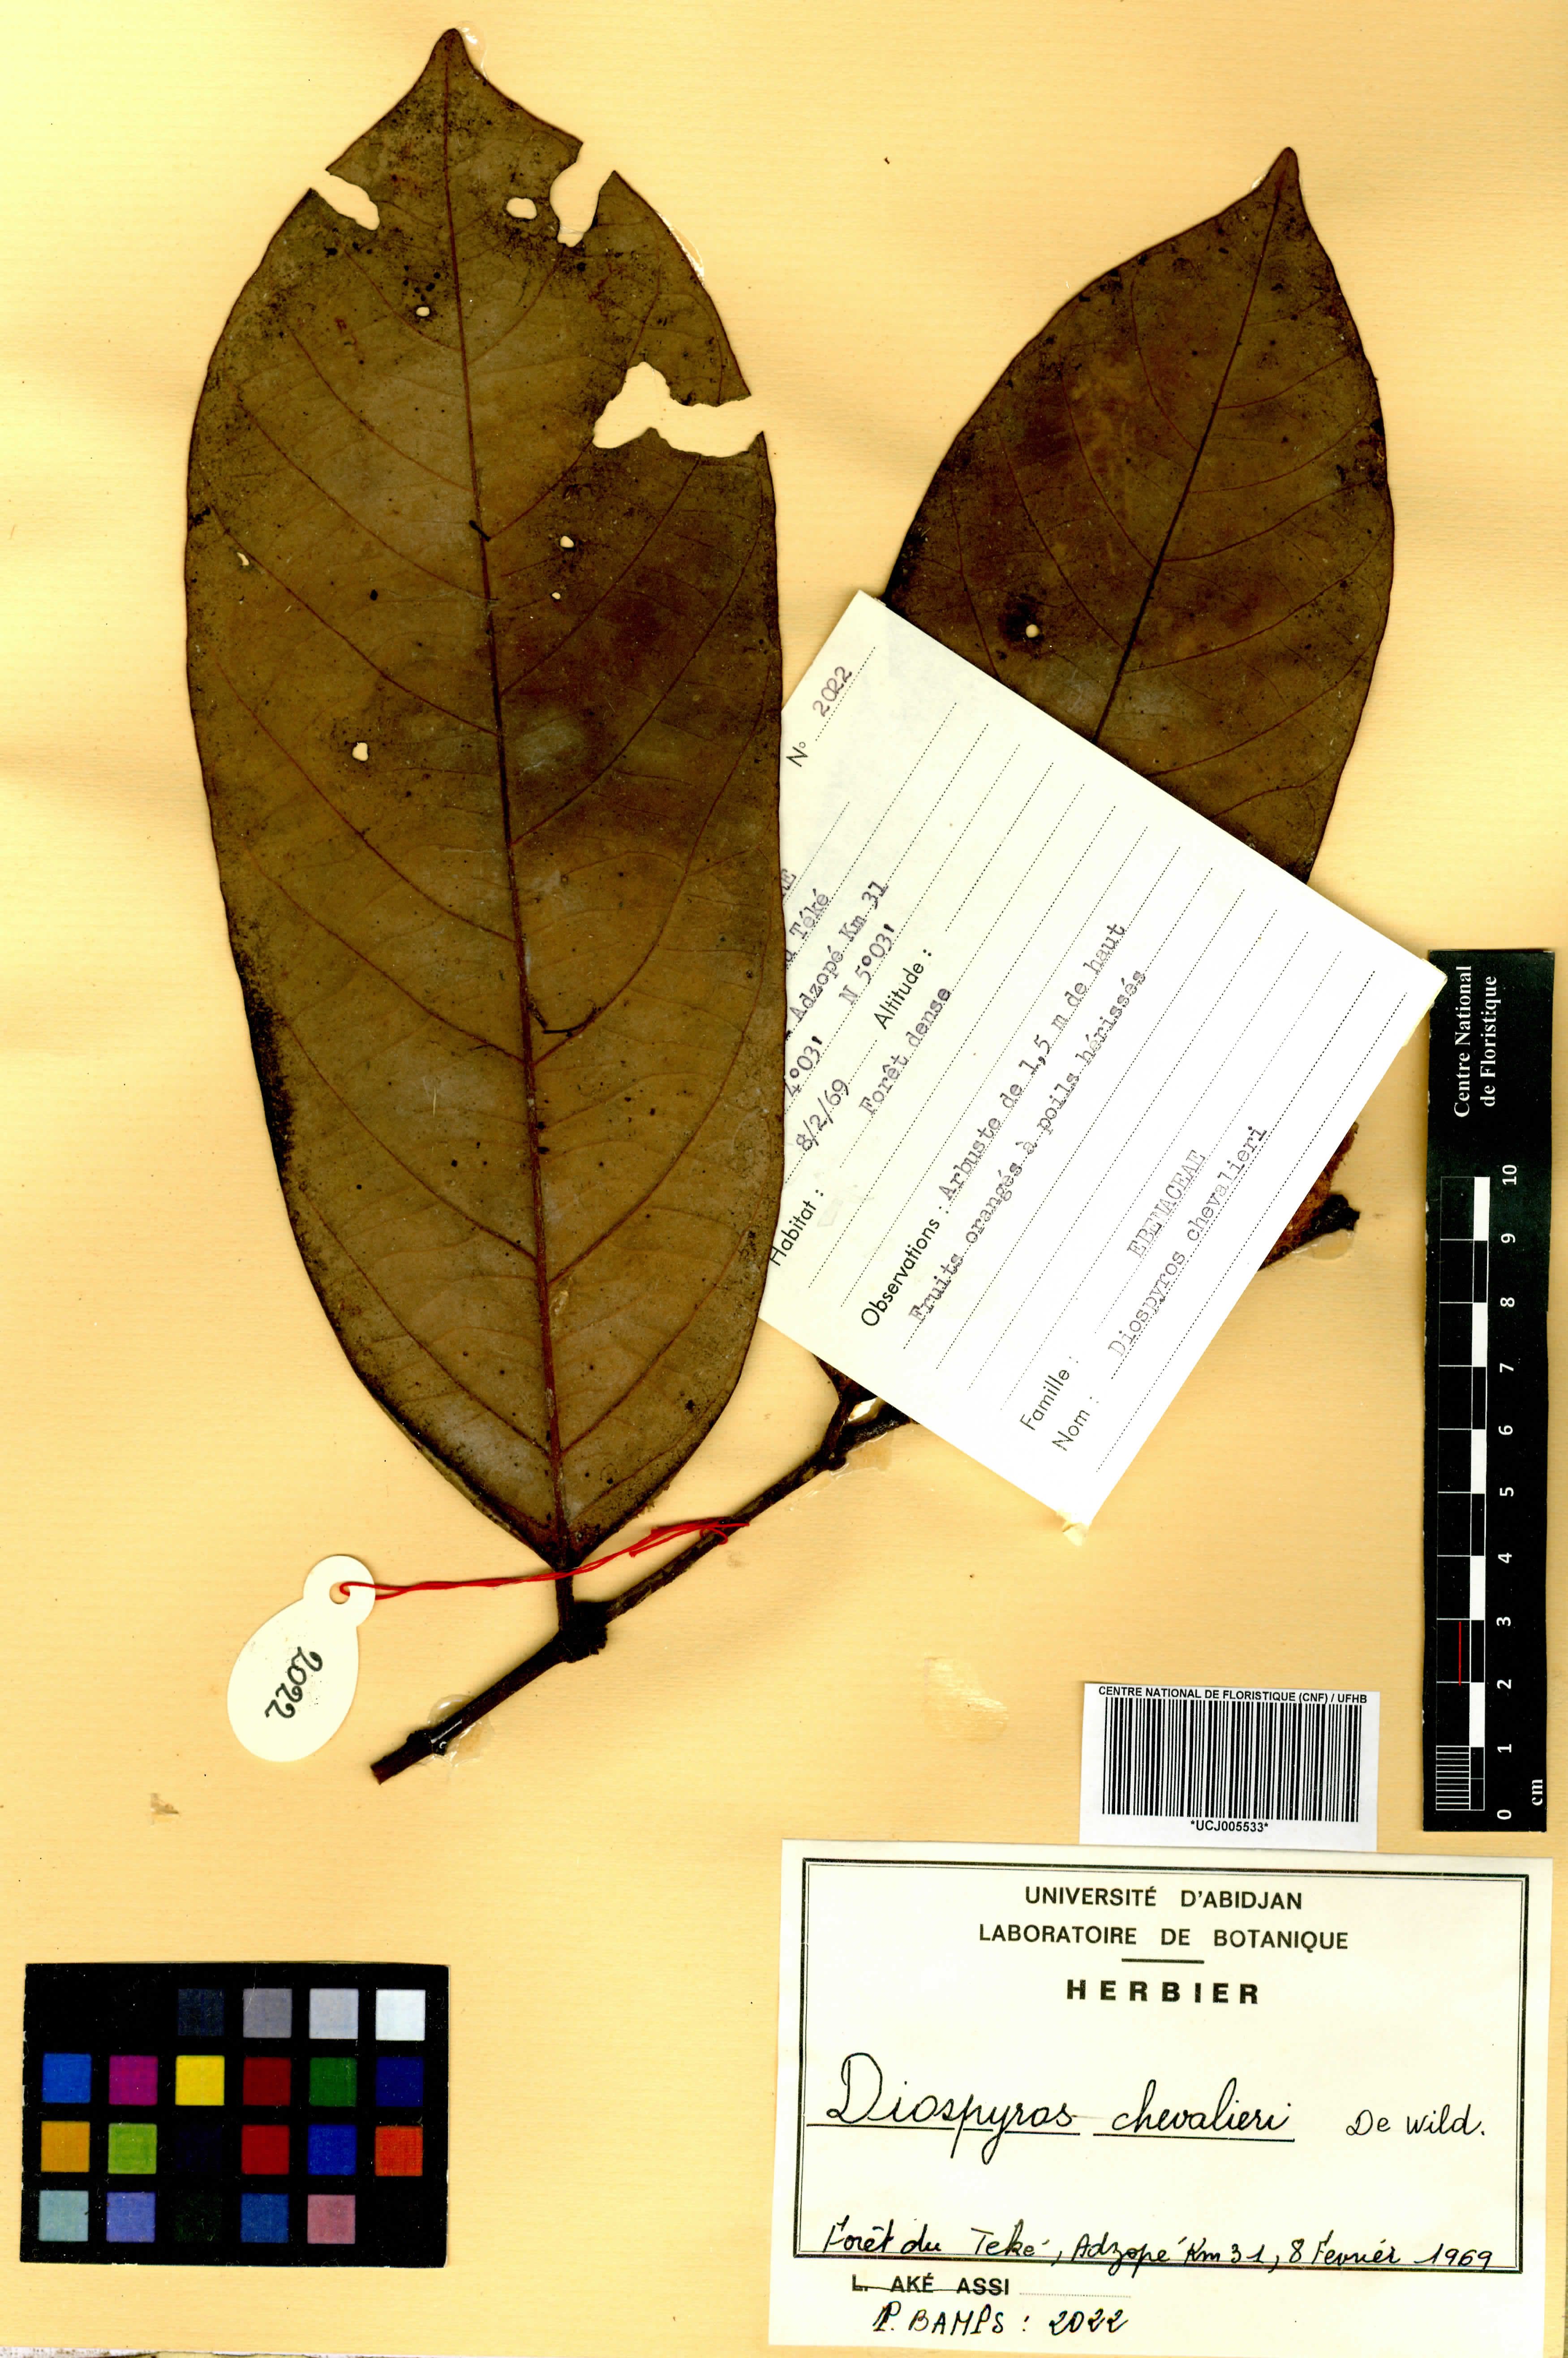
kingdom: Plantae
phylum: Tracheophyta
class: Magnoliopsida
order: Ericales
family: Ebenaceae
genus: Diospyros
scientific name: Diospyros chevalieri
